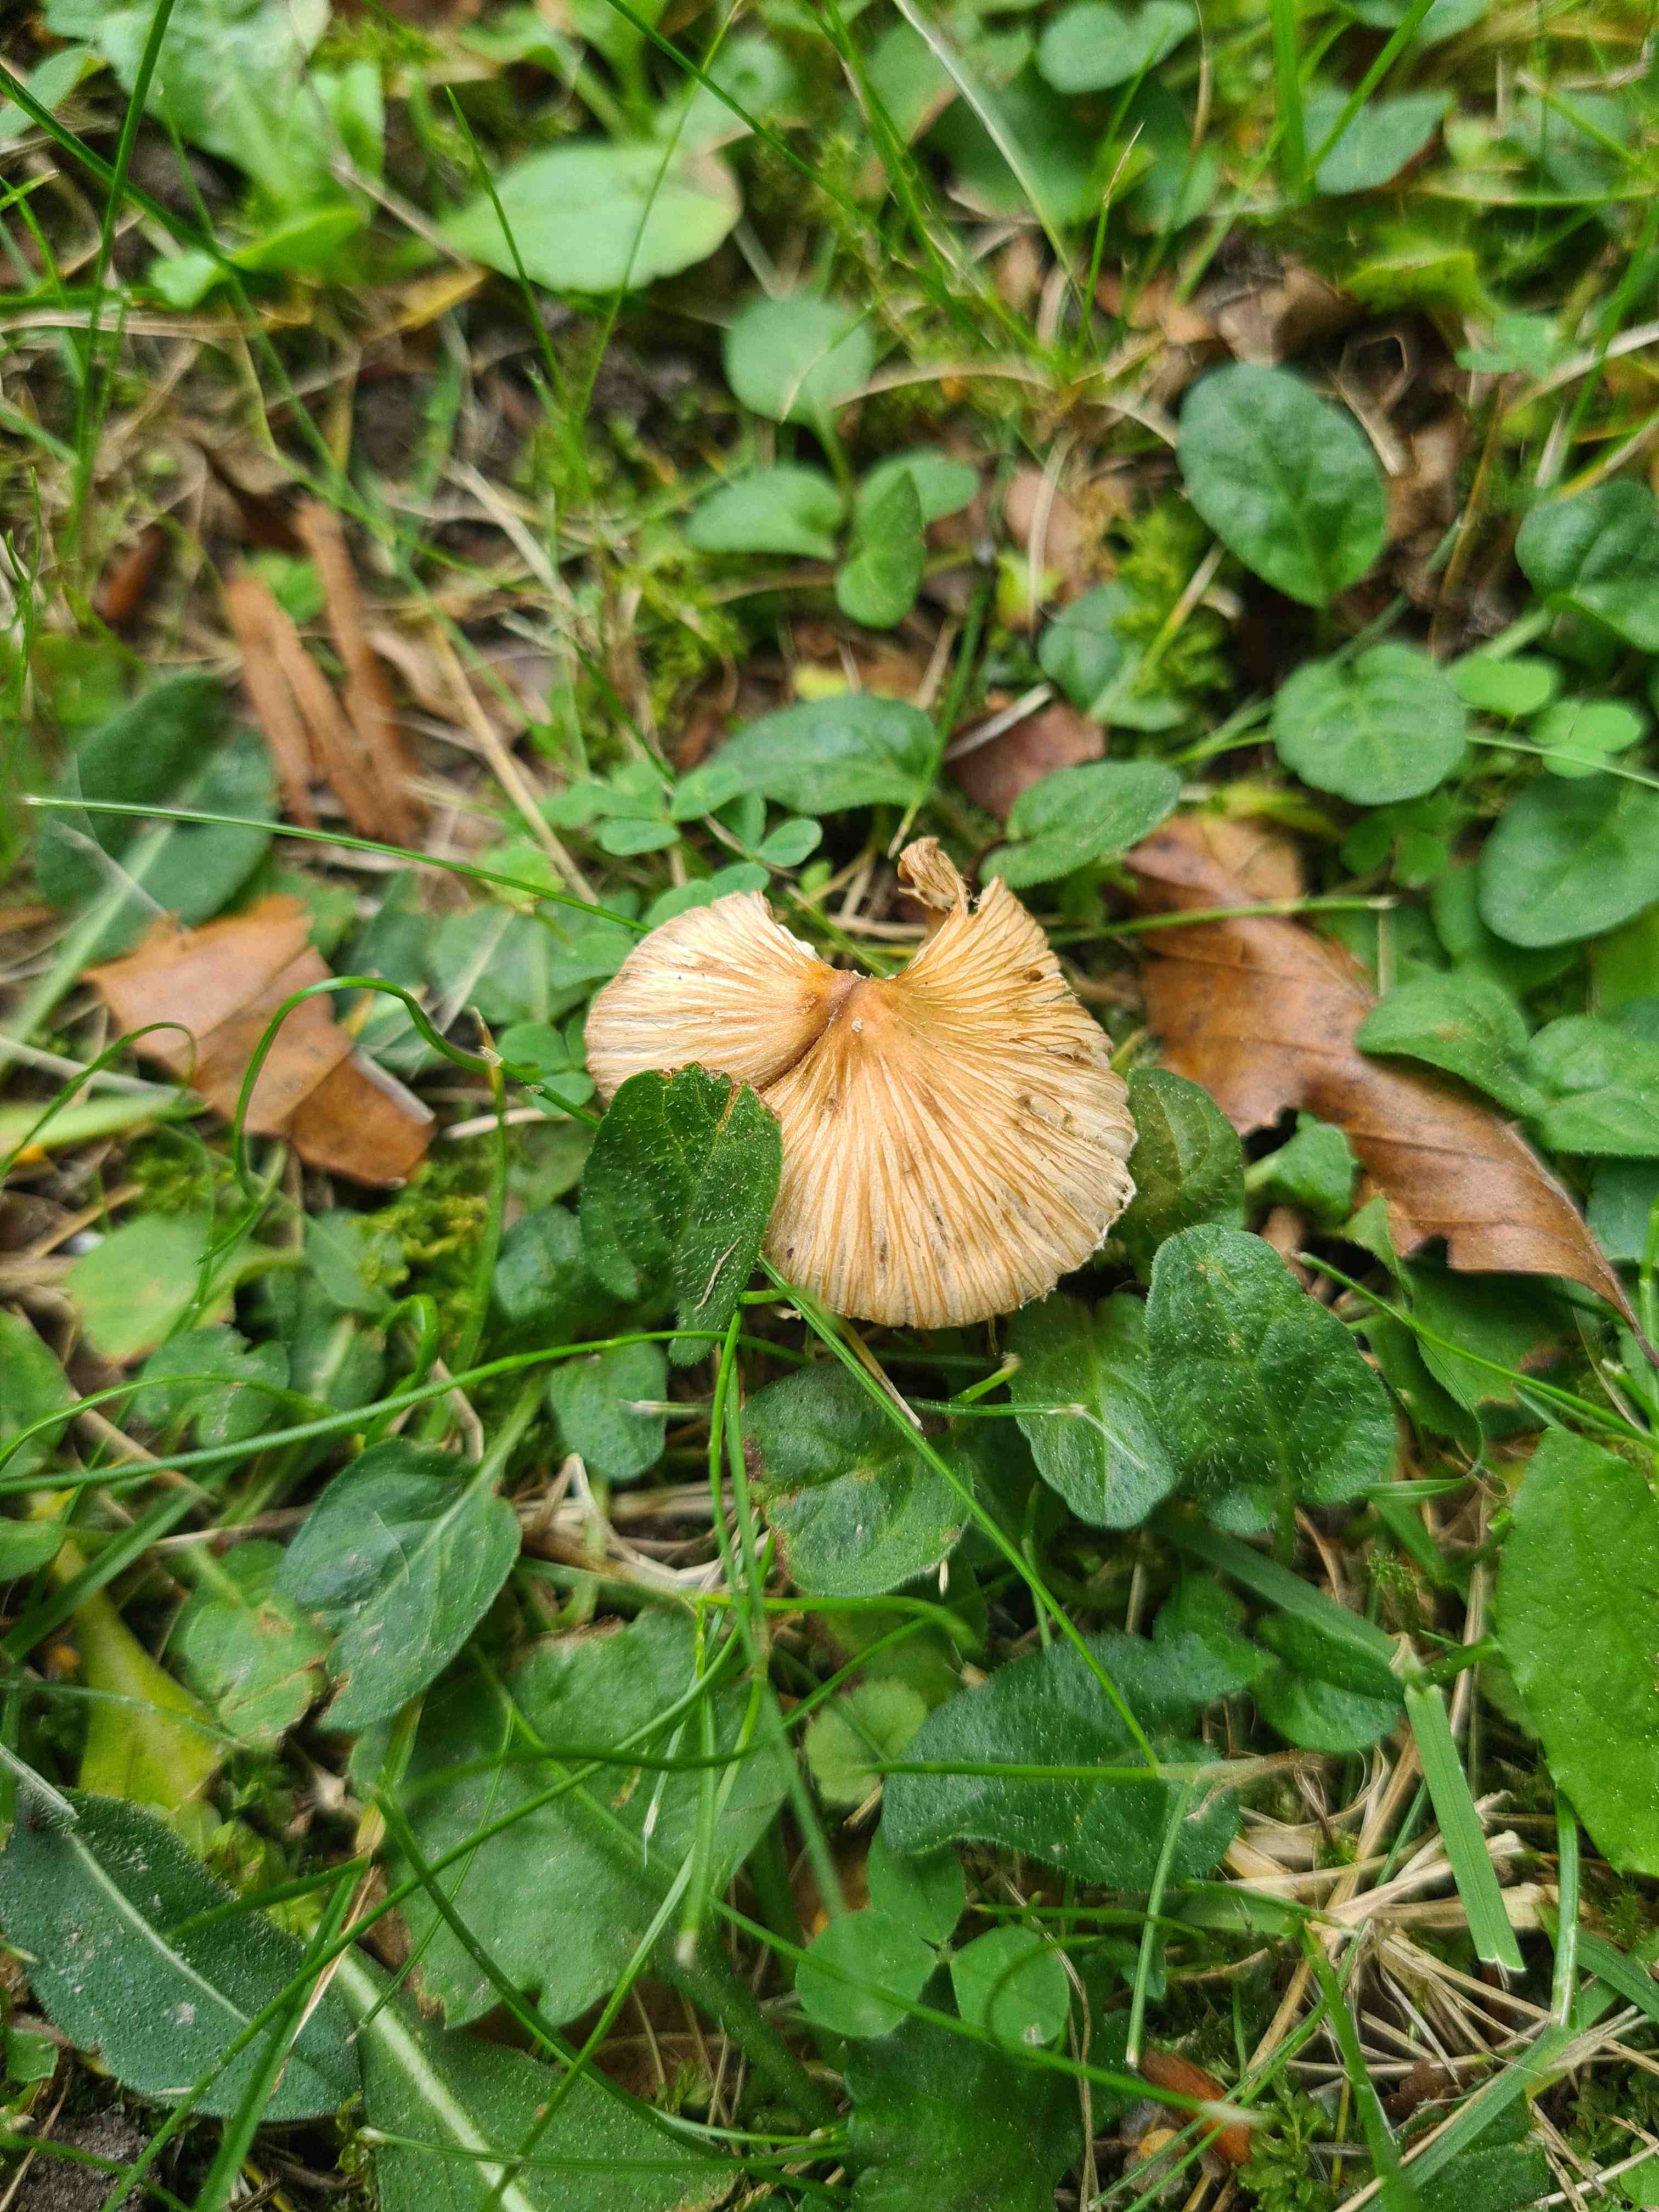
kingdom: Fungi
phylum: Basidiomycota
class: Agaricomycetes
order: Agaricales
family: Inocybaceae
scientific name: Inocybaceae
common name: trævlhatfamilien
